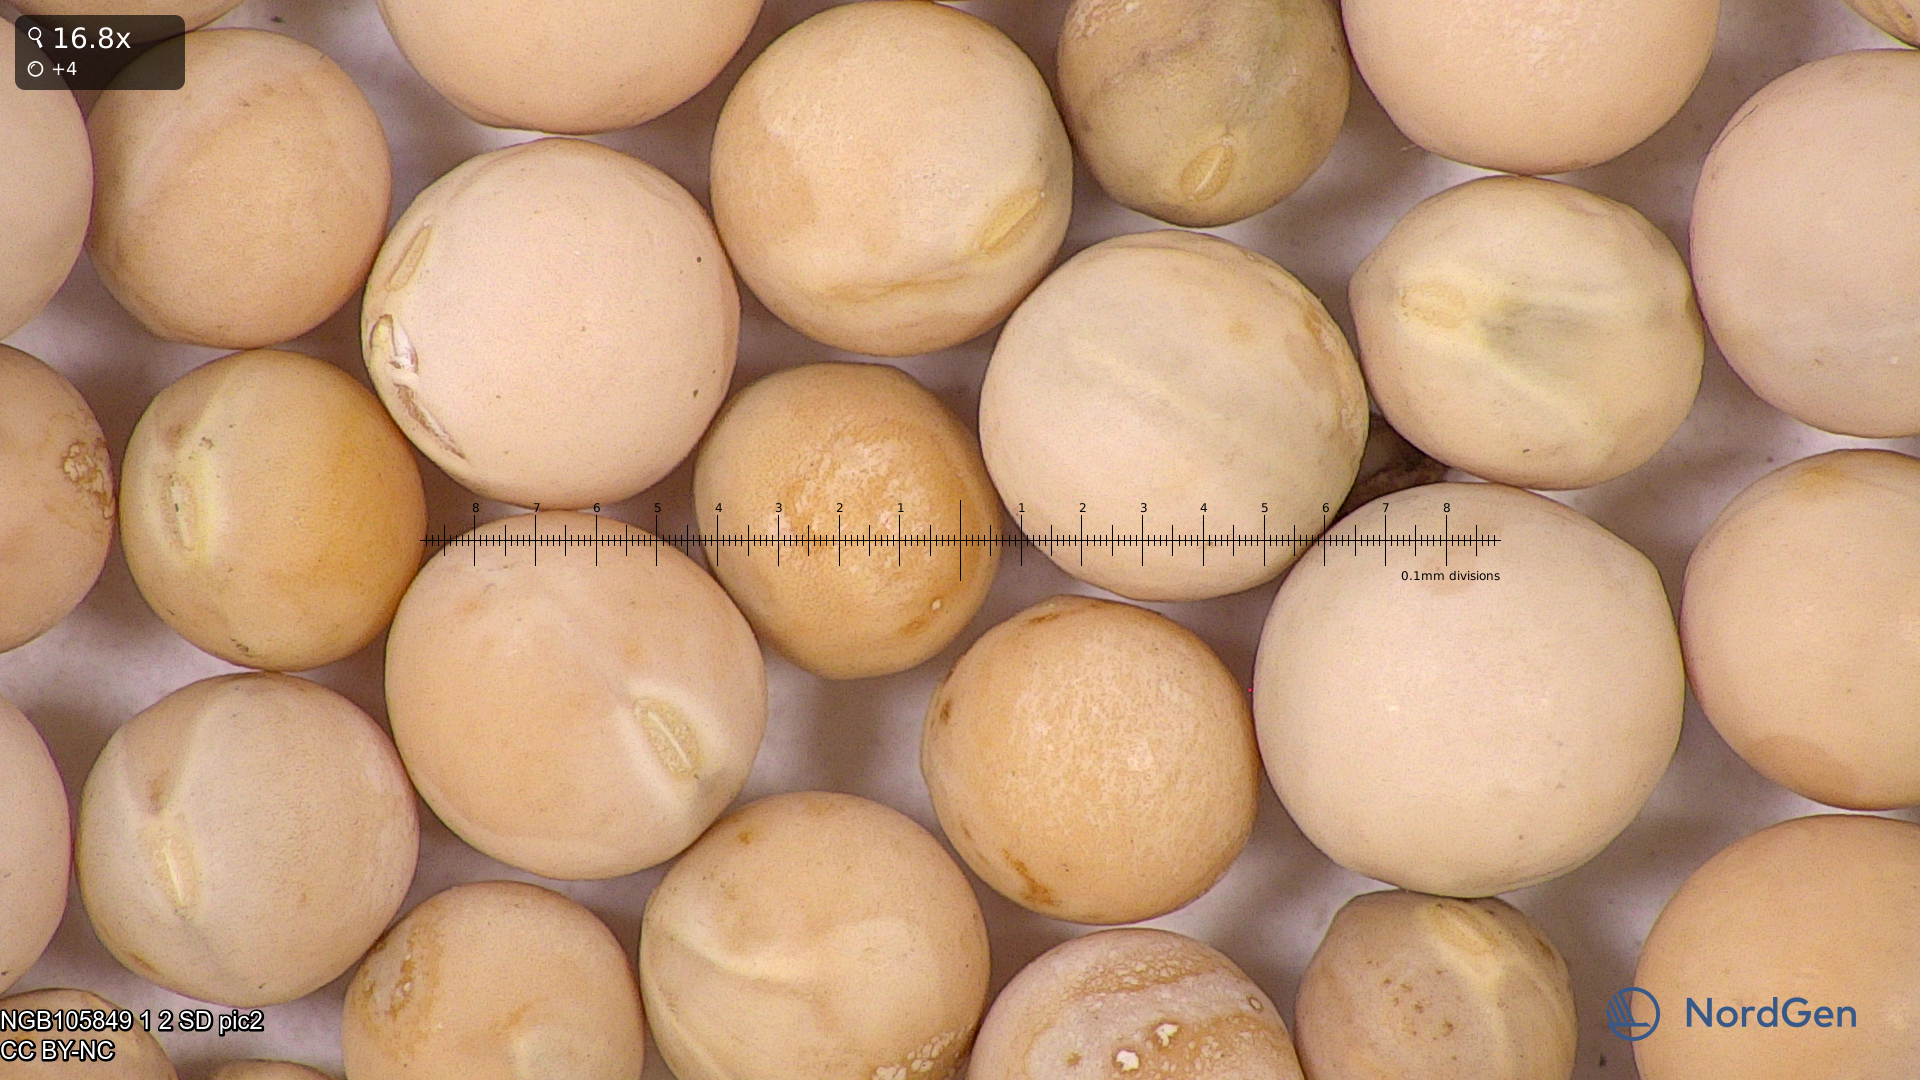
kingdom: Plantae
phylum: Tracheophyta
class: Magnoliopsida
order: Fabales
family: Fabaceae
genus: Lathyrus
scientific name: Lathyrus oleraceus
